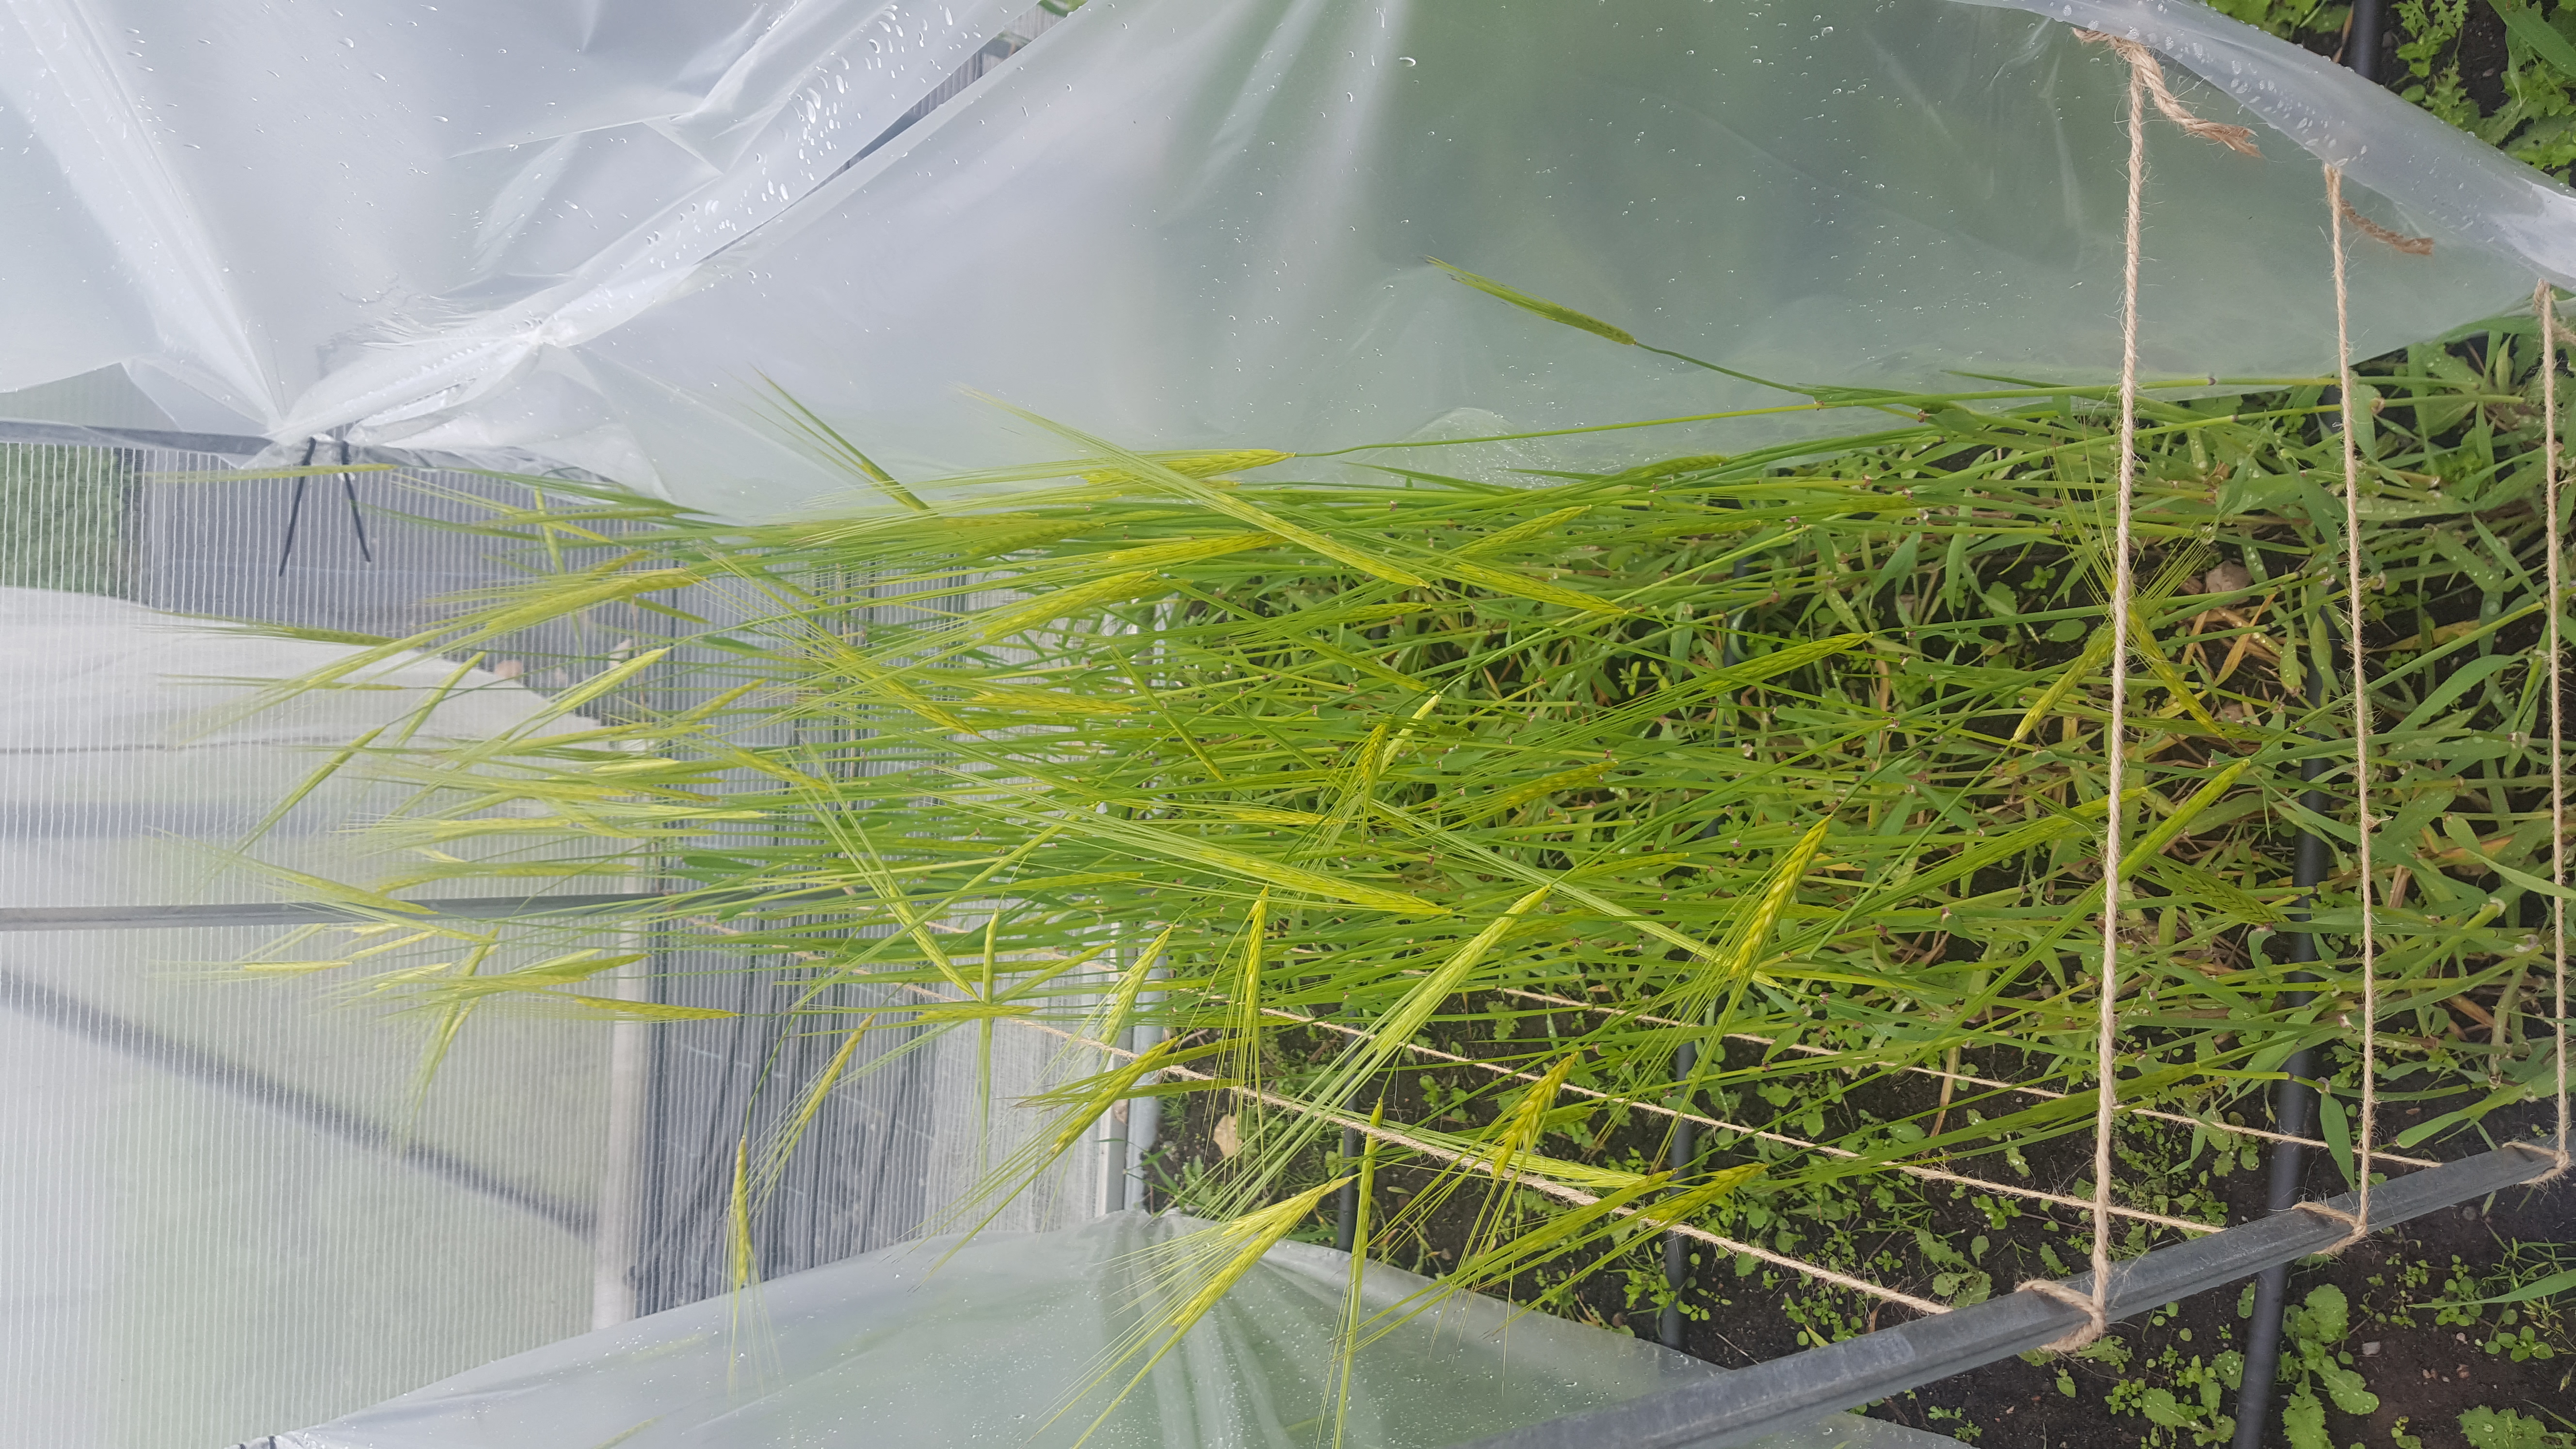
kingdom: Plantae
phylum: Tracheophyta
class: Liliopsida
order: Poales
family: Poaceae
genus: Hordeum
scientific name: Hordeum spontaneum
